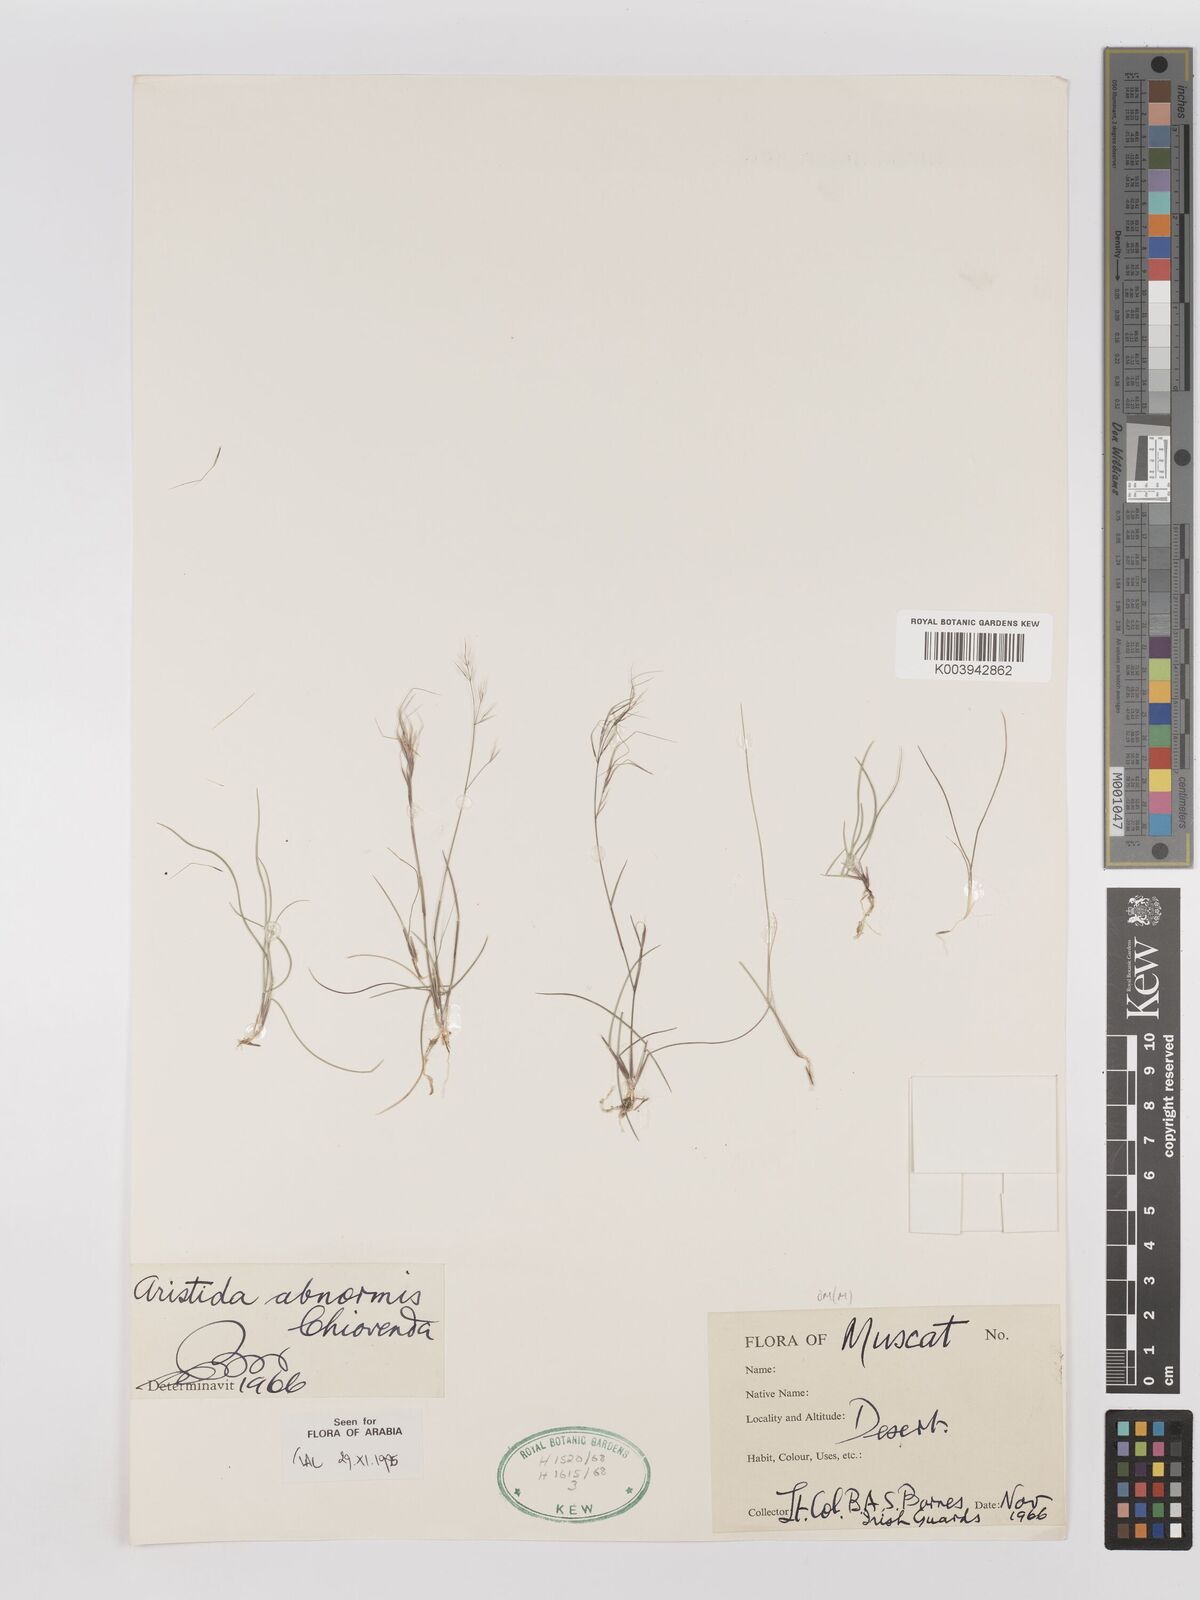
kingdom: Plantae
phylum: Tracheophyta
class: Liliopsida
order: Poales
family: Poaceae
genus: Aristida
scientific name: Aristida abnormis
